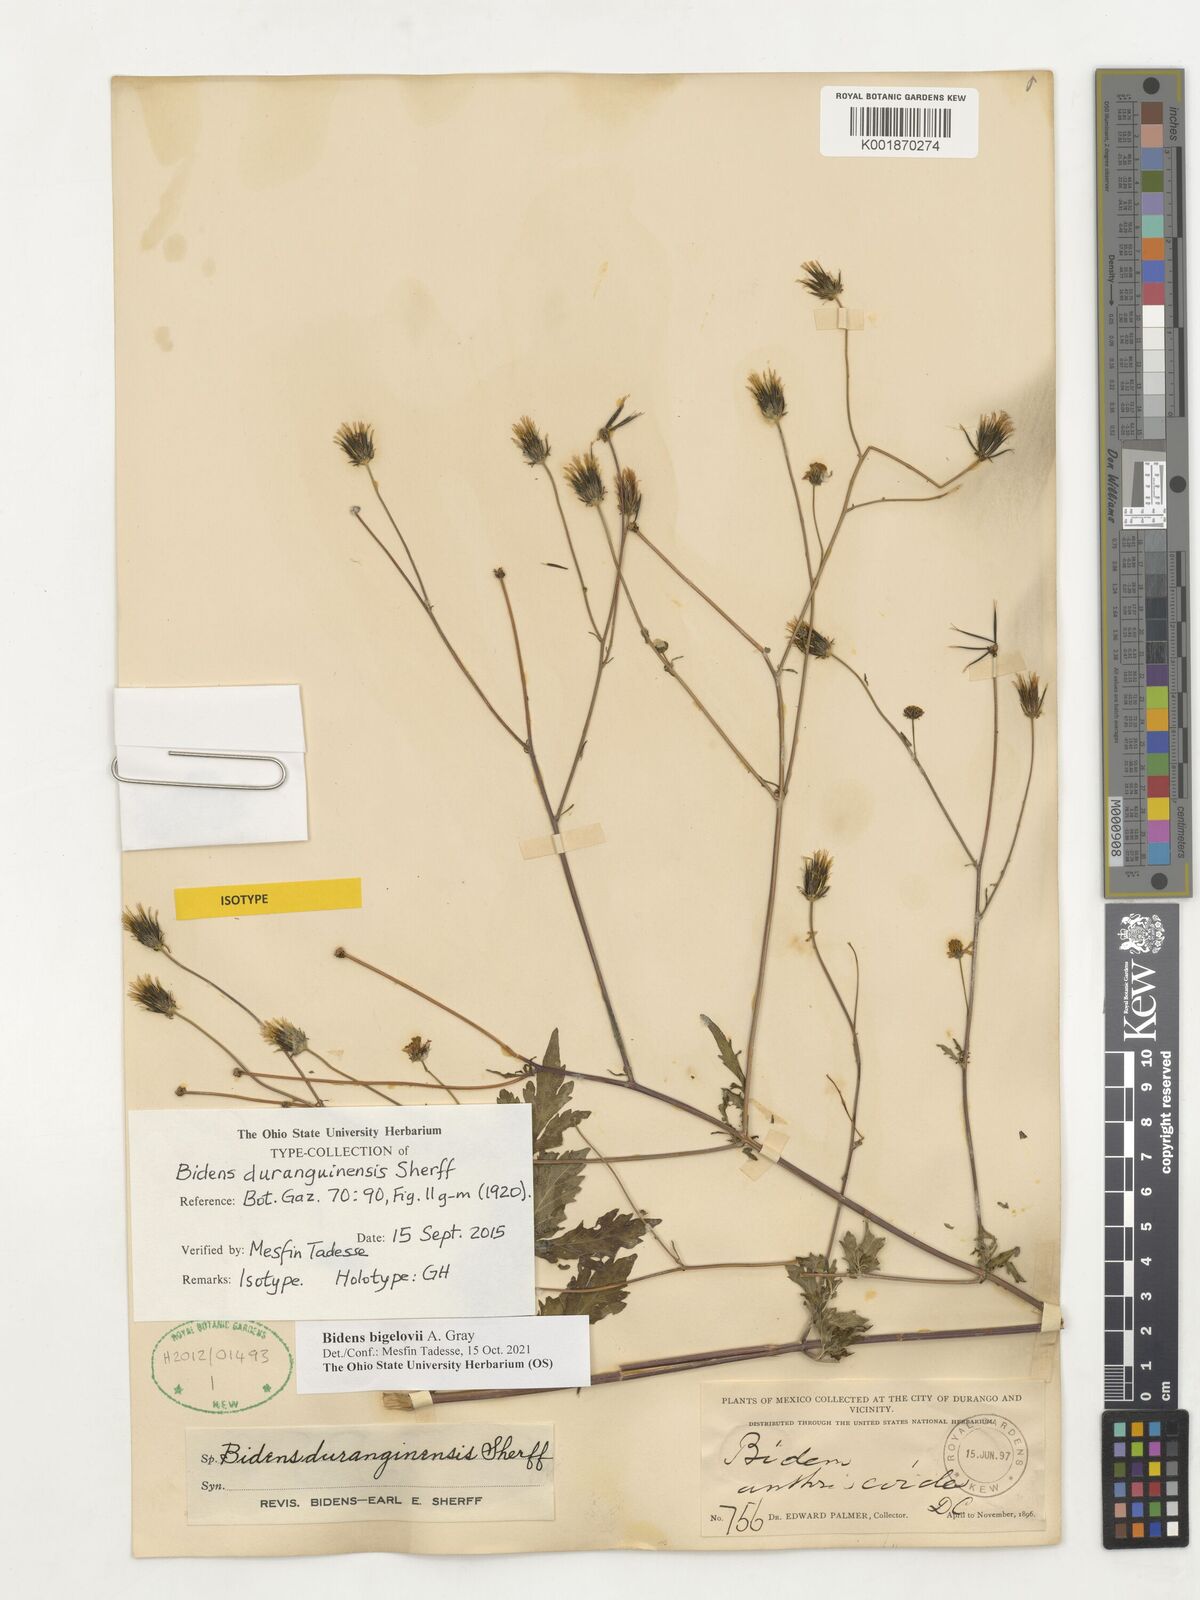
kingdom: Plantae
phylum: Tracheophyta
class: Magnoliopsida
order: Asterales
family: Asteraceae
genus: Bidens
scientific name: Bidens bigelovii
